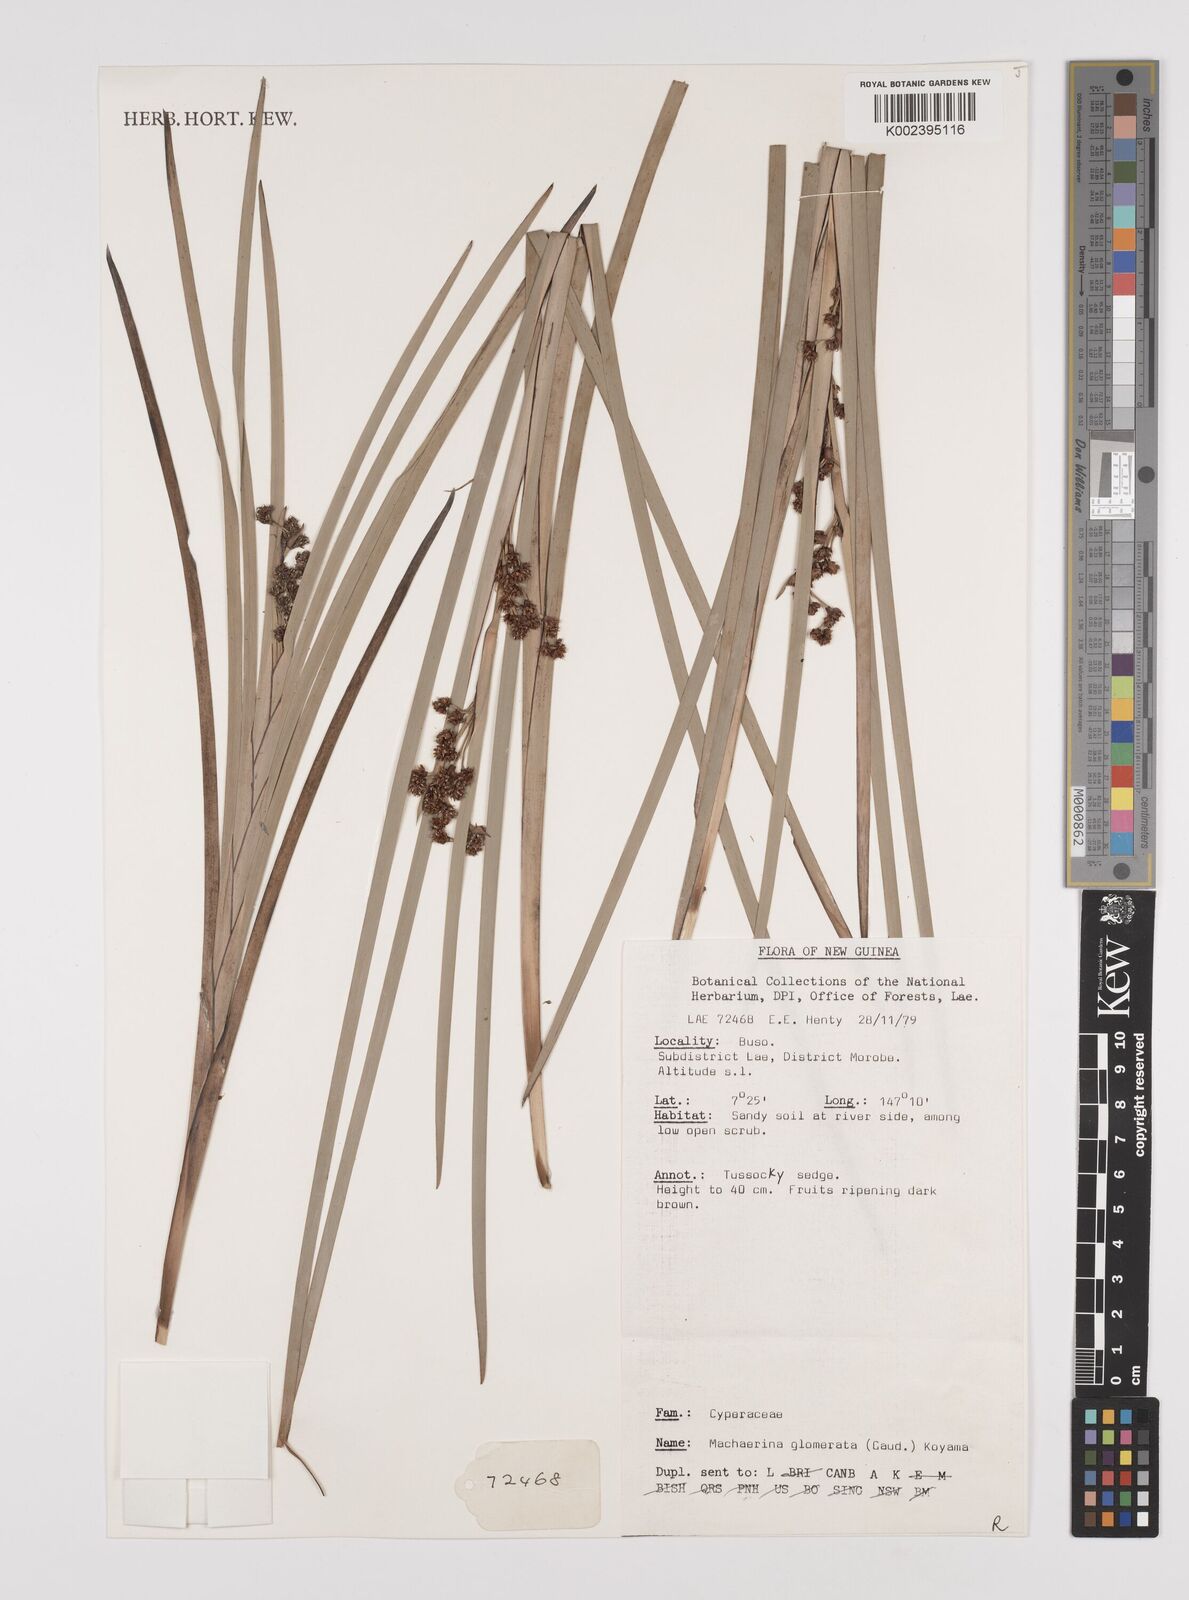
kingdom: Plantae
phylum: Tracheophyta
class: Liliopsida
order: Poales
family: Cyperaceae
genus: Machaerina
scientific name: Machaerina glomerata
